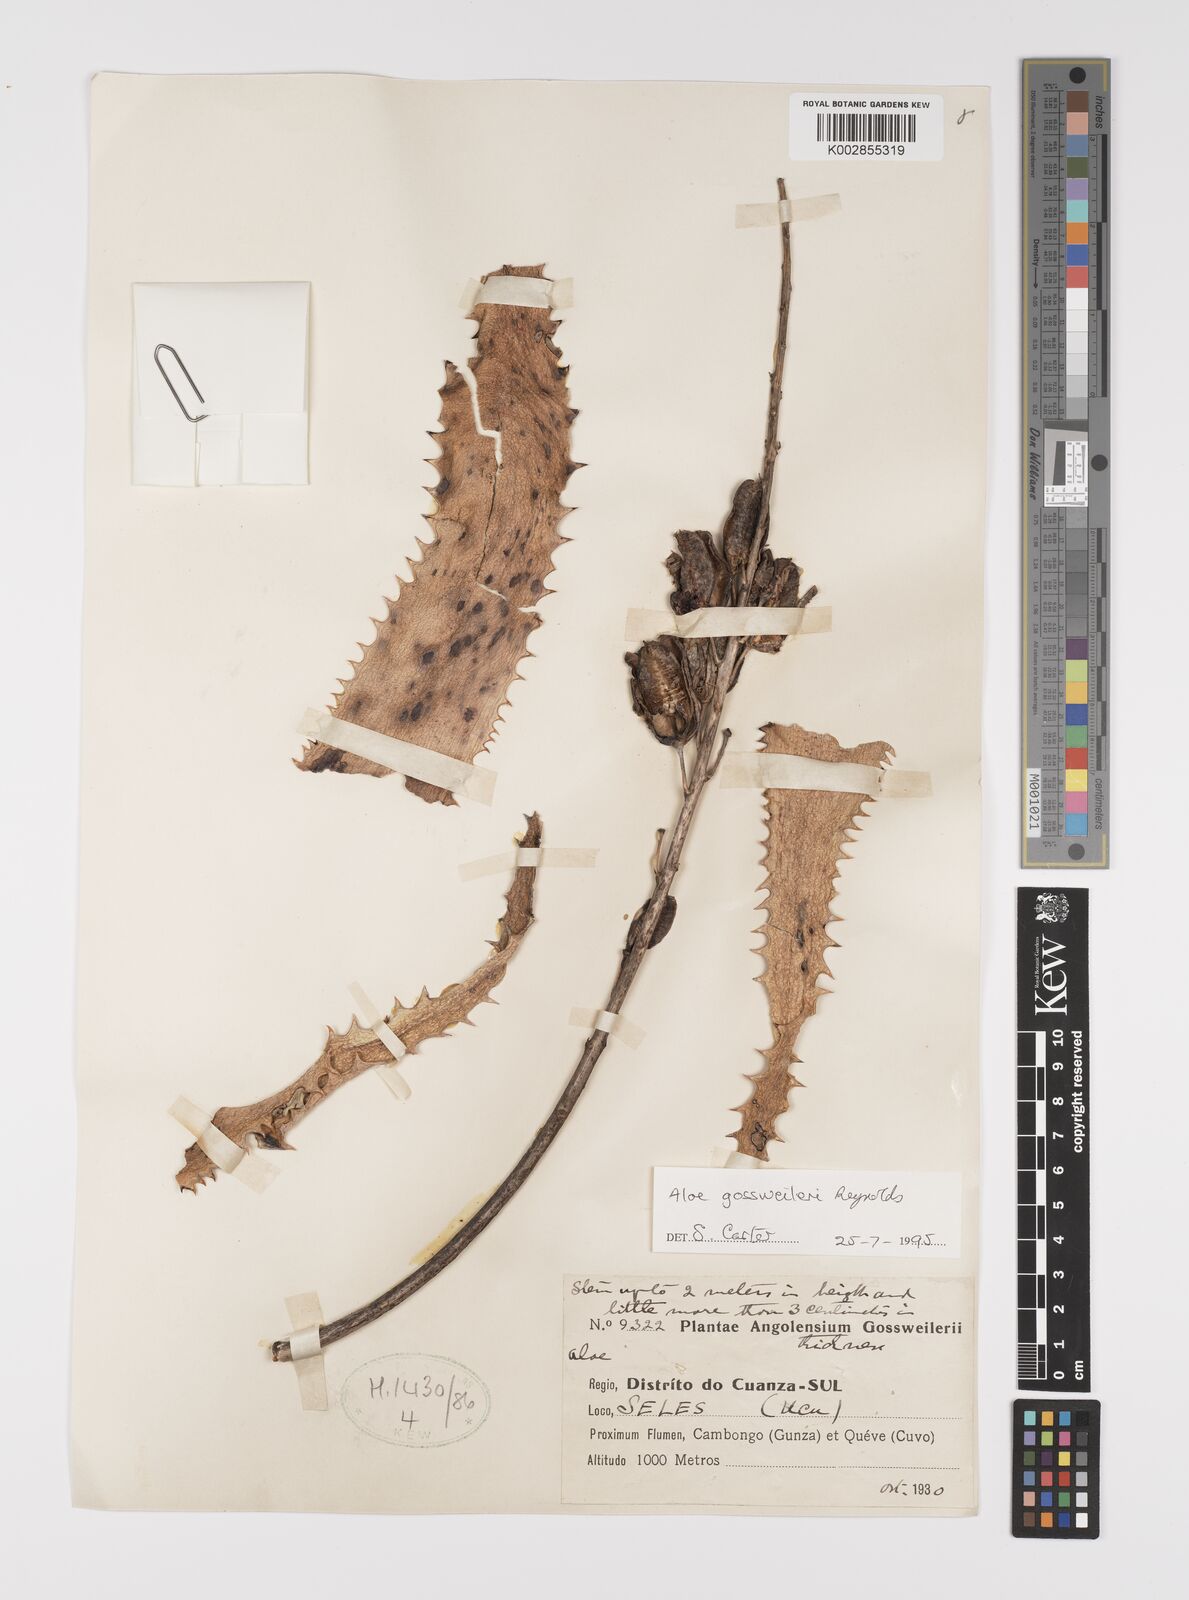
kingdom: Plantae
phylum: Tracheophyta
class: Liliopsida
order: Asparagales
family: Asphodelaceae
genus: Aloe
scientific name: Aloe gossweileri
